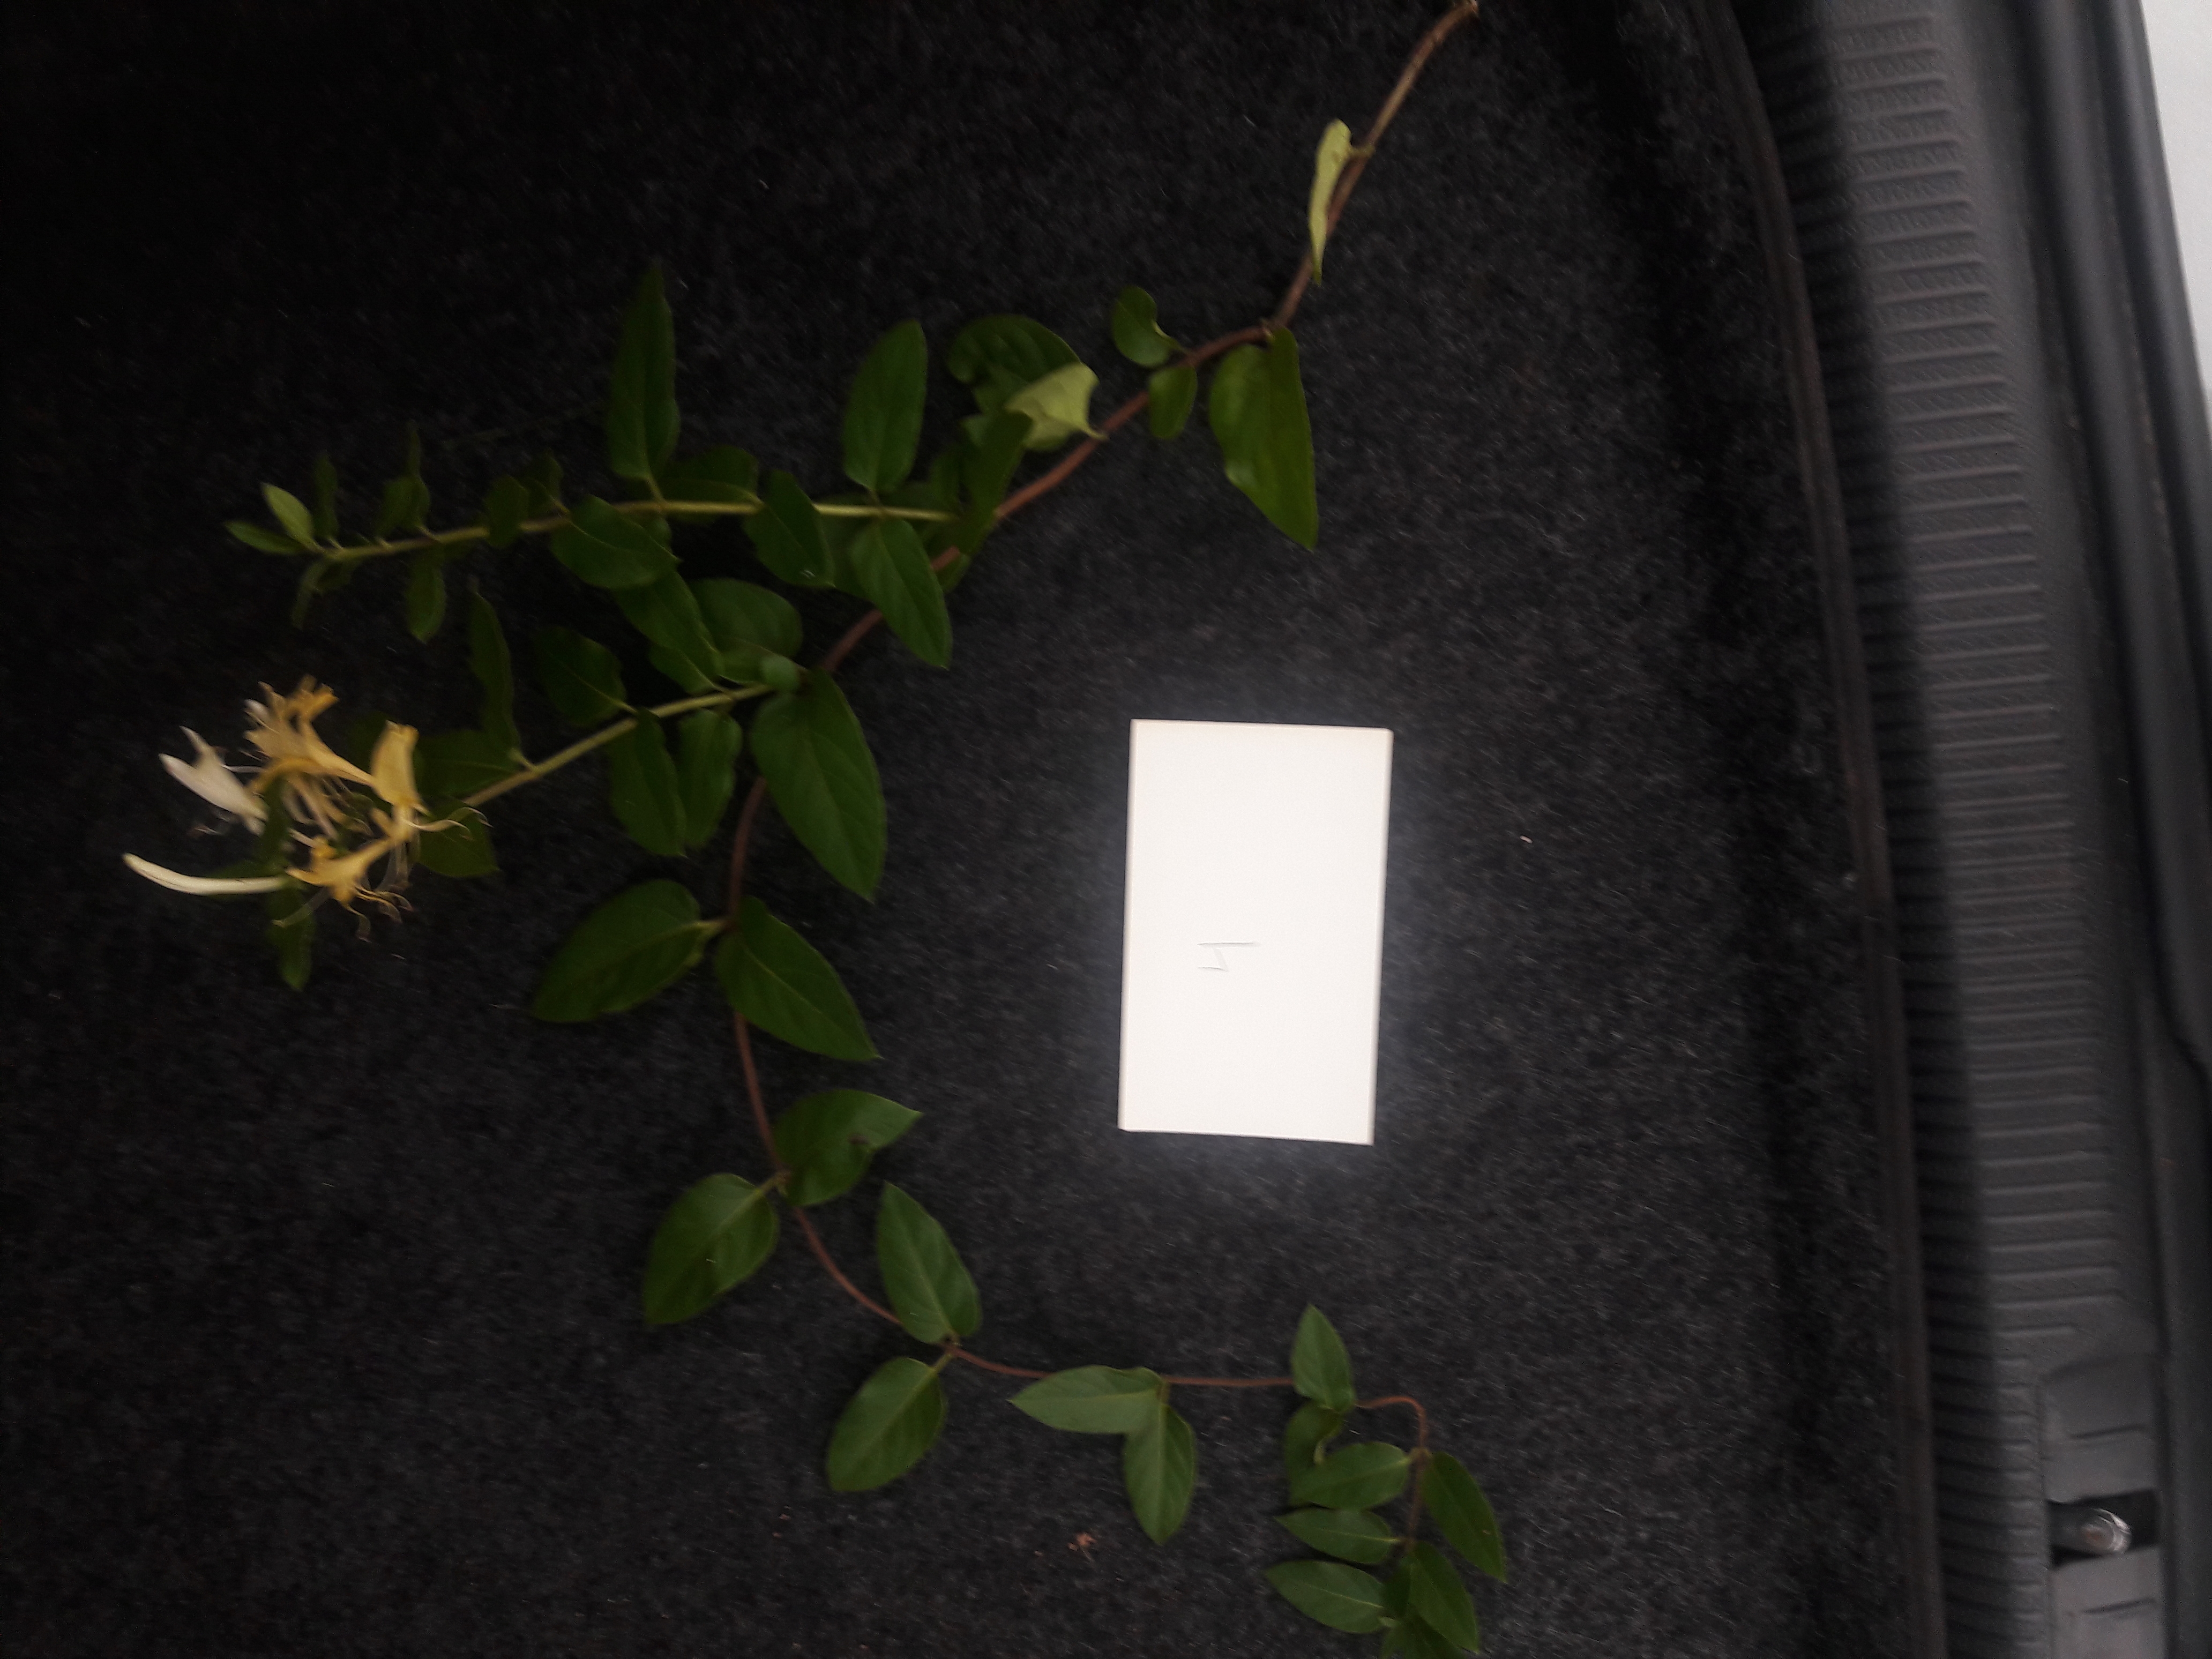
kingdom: Plantae
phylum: Tracheophyta
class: Magnoliopsida
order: Dipsacales
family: Caprifoliaceae
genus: Lonicera
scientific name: Lonicera japonica
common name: Honeysuckle
